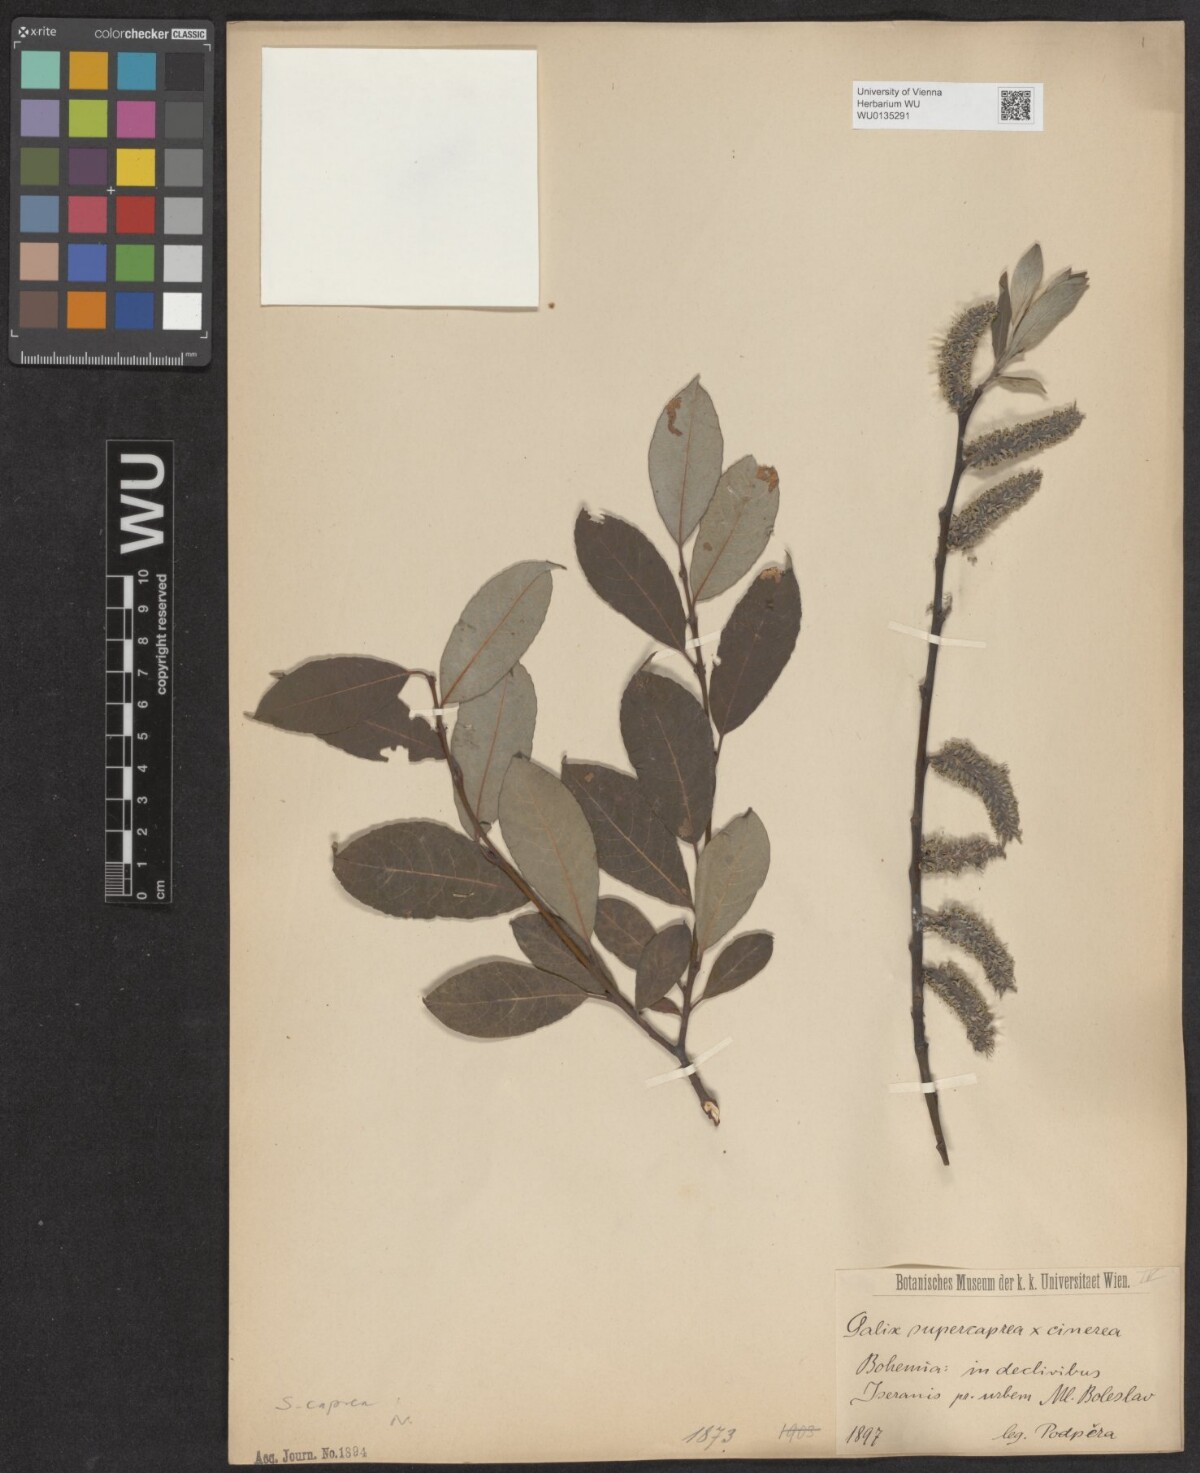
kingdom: Plantae
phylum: Tracheophyta
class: Magnoliopsida
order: Malpighiales
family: Salicaceae
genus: Salix
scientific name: Salix caprea
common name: Goat willow
